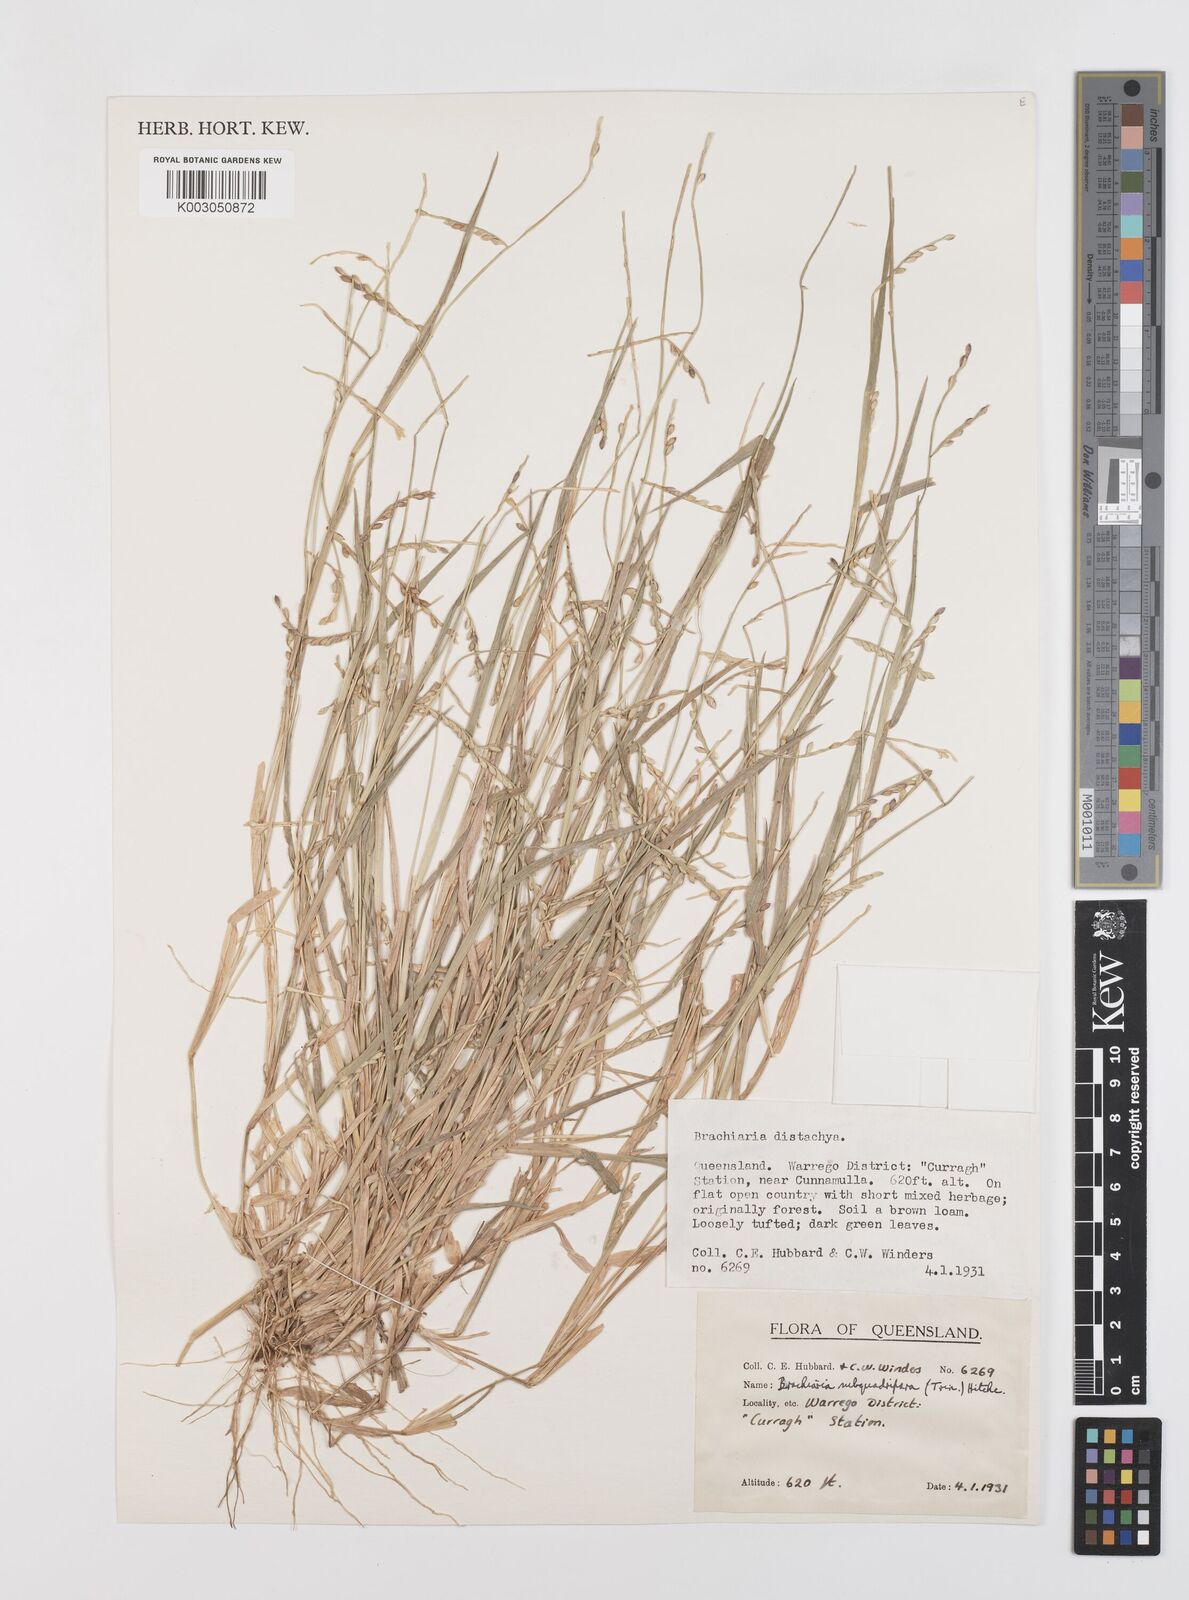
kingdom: Plantae
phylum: Tracheophyta
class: Liliopsida
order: Poales
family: Poaceae
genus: Urochloa
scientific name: Urochloa subquadripara
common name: Armgrass millet
